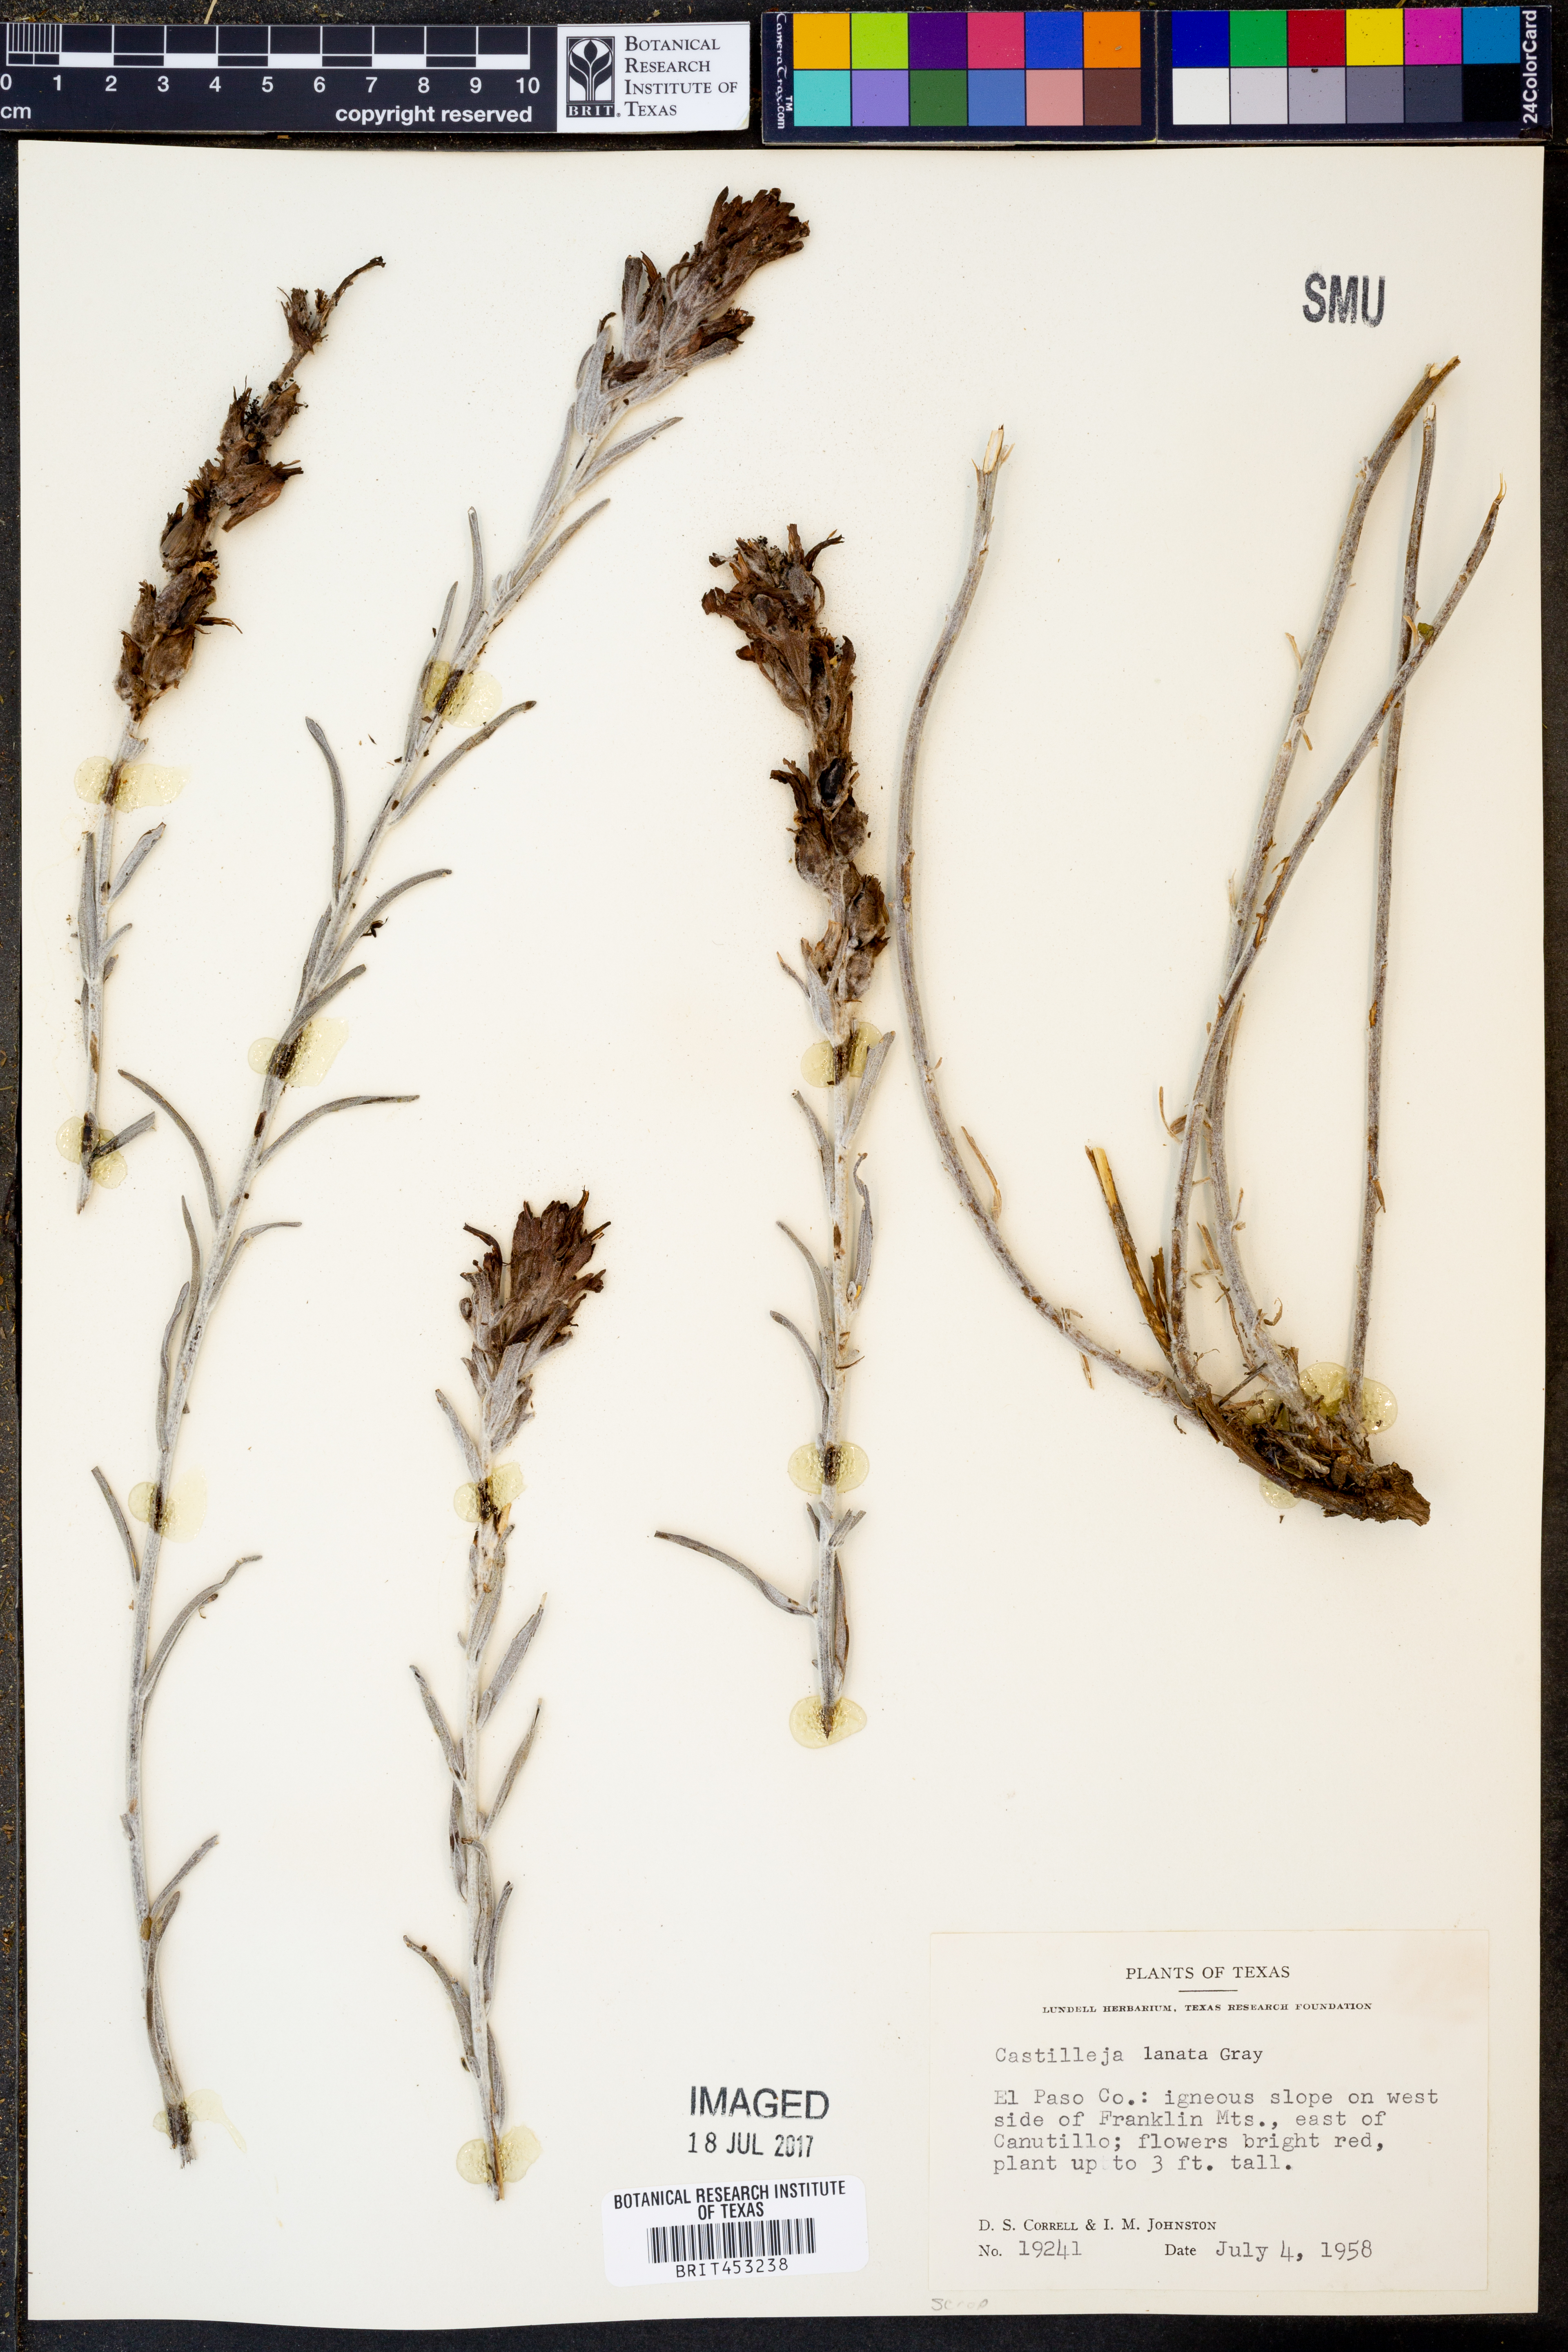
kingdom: Plantae
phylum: Tracheophyta
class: Magnoliopsida
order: Lamiales
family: Orobanchaceae
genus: Castilleja
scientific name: Castilleja lanata
